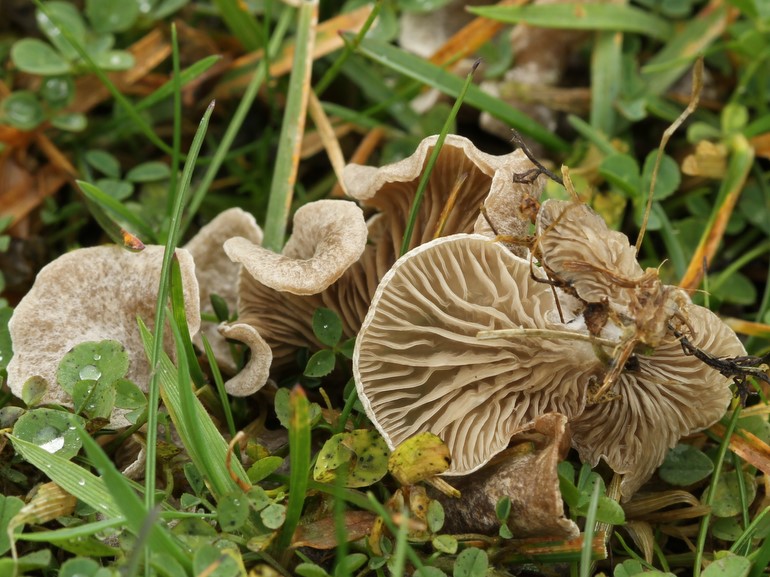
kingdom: Fungi
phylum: Basidiomycota
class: Agaricomycetes
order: Agaricales
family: Hygrophoraceae
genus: Arrhenia
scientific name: Arrhenia acerosa
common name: muslinge-fontænehat
